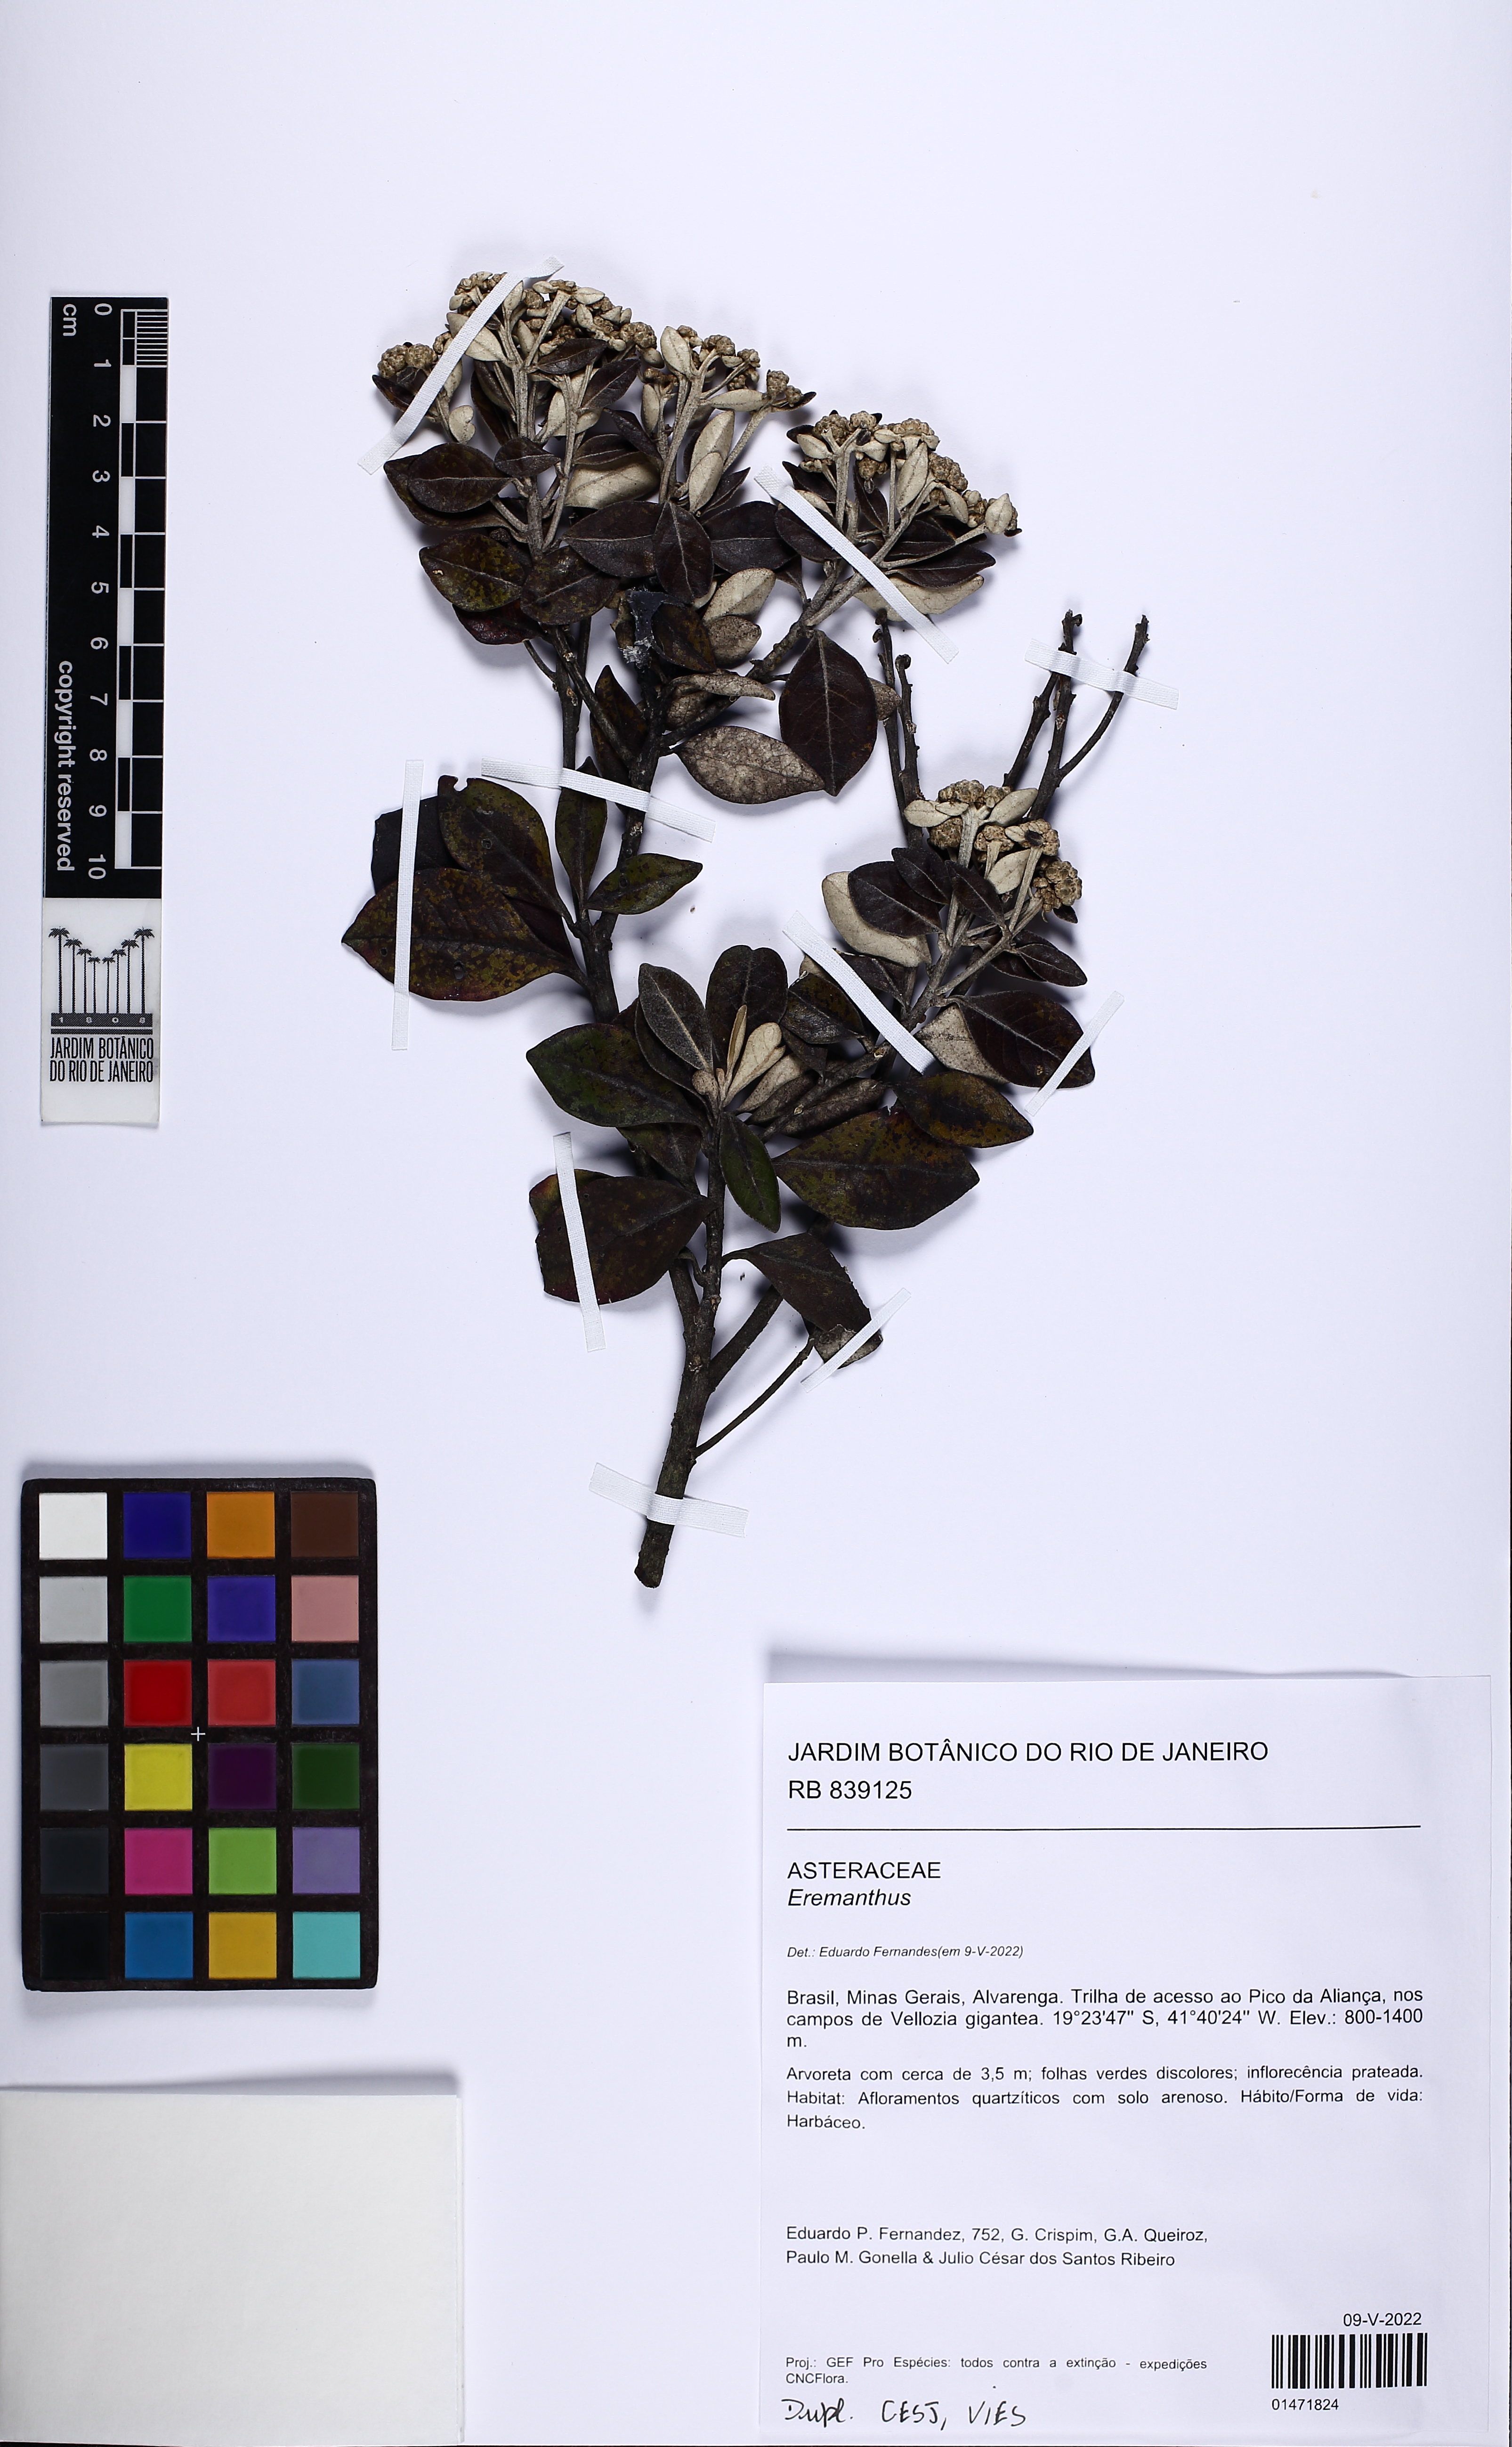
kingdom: Plantae
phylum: Tracheophyta
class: Magnoliopsida
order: Asterales
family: Asteraceae
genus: Eremanthus
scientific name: Eremanthus
